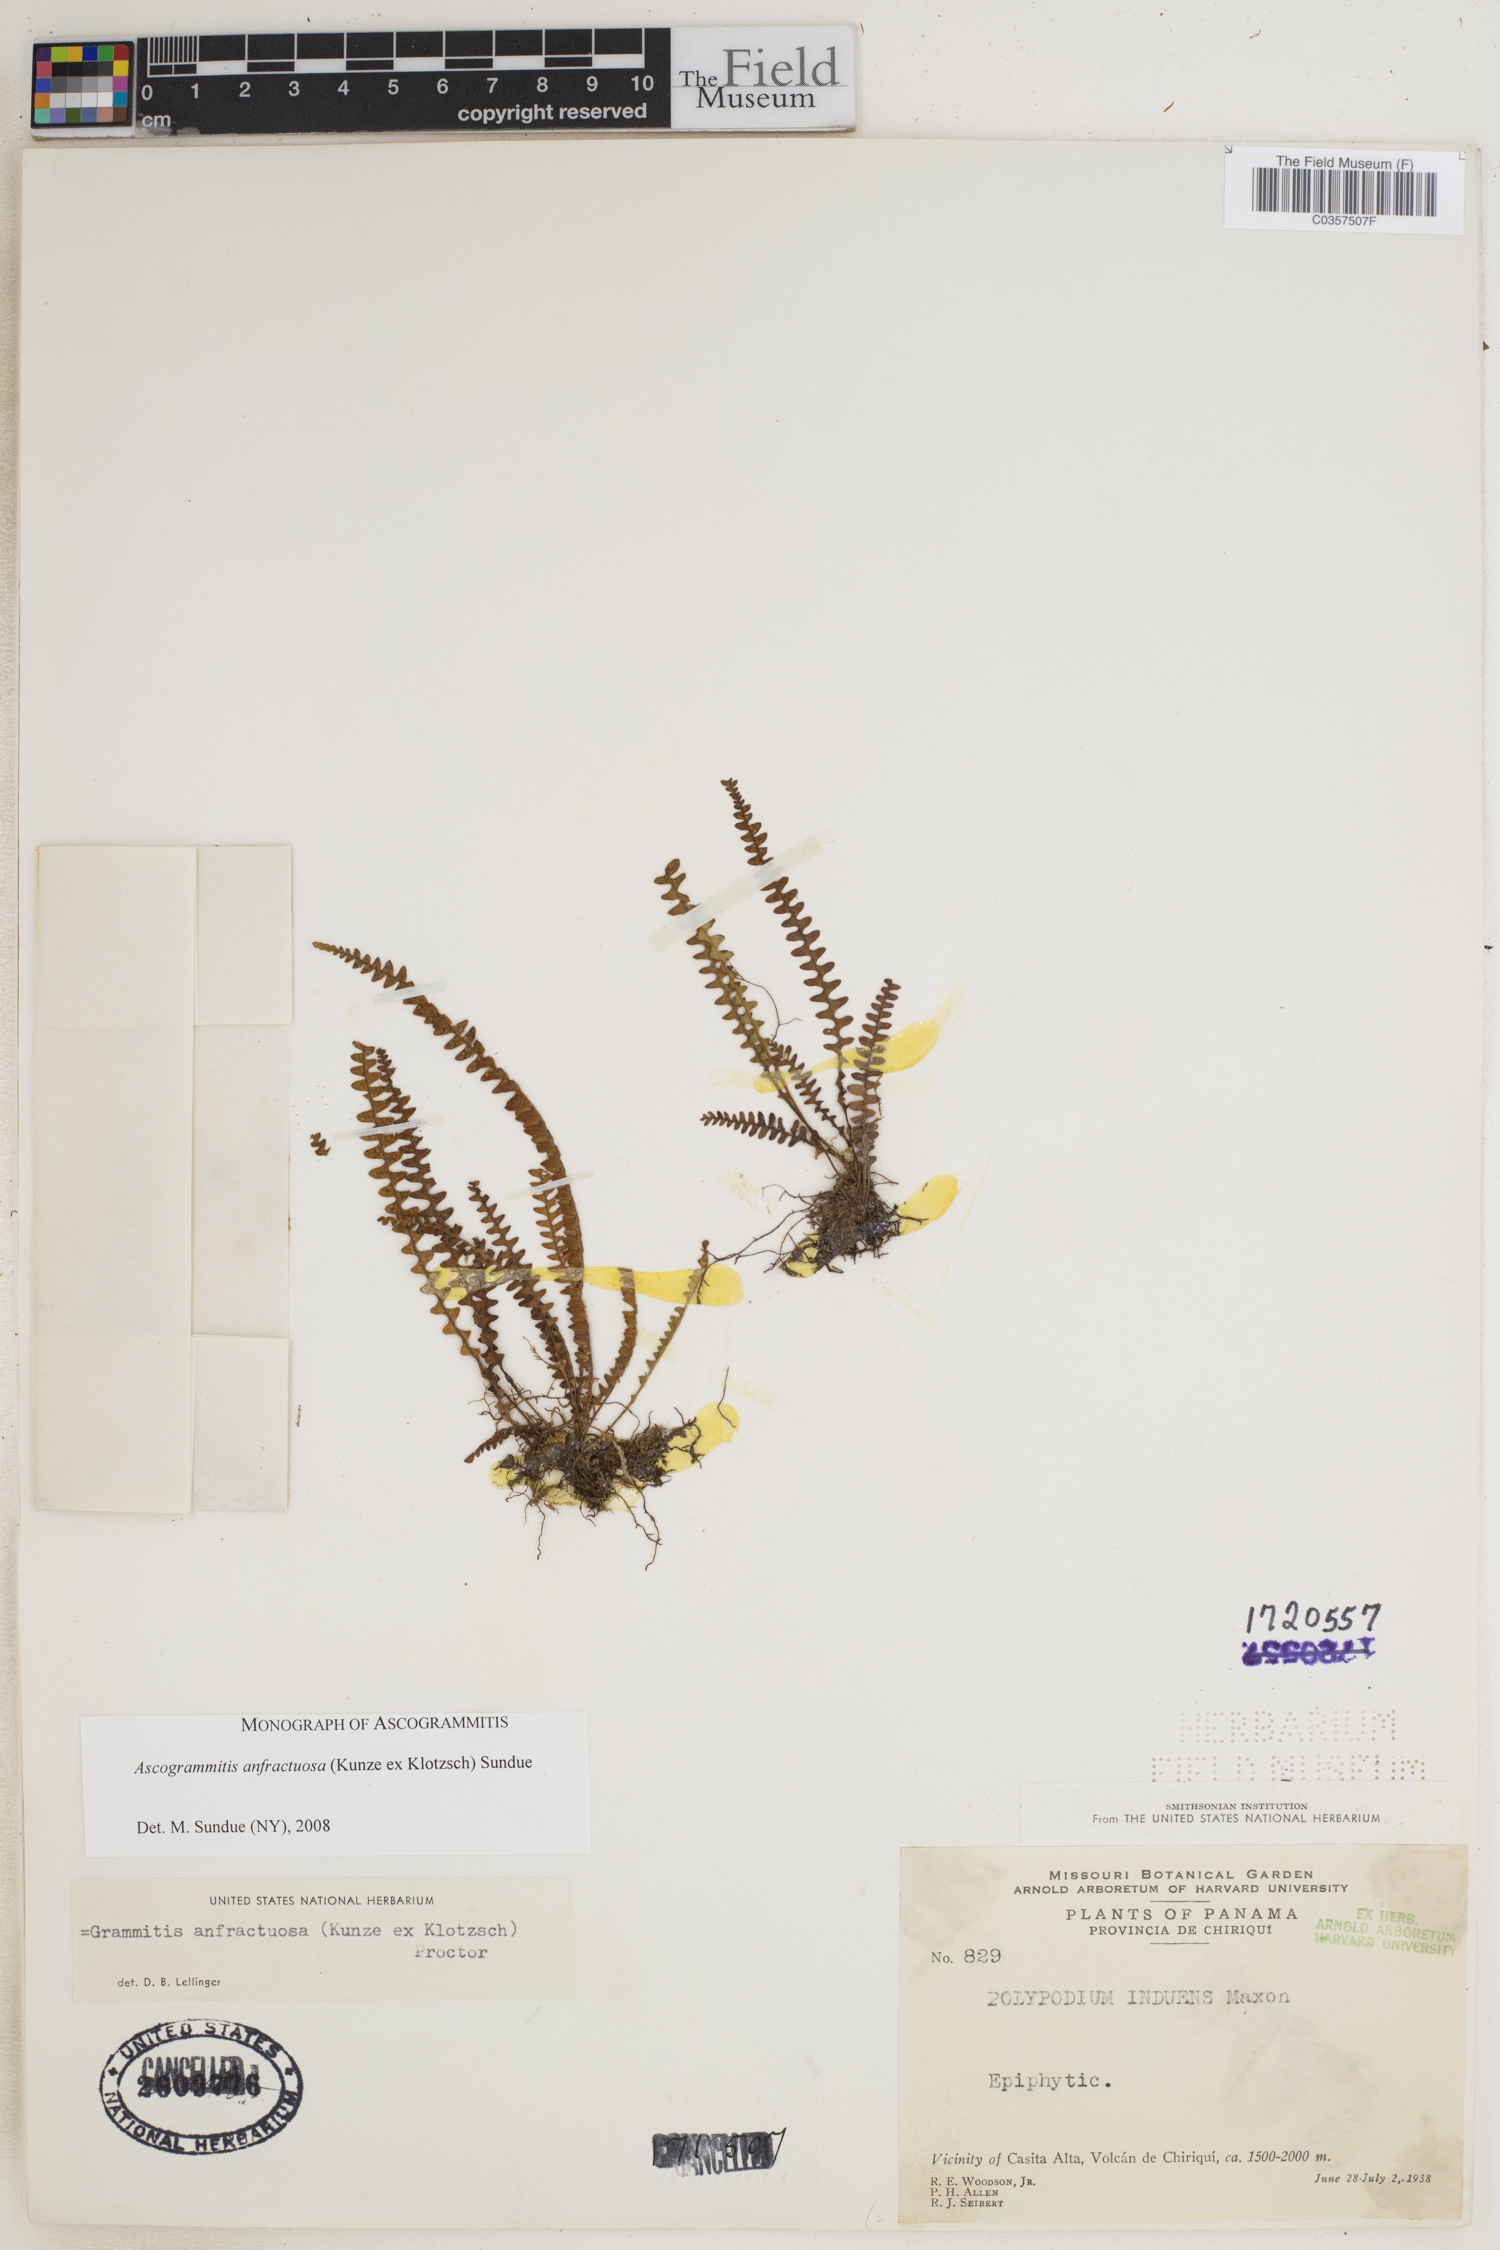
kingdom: Plantae
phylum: Tracheophyta
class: Polypodiopsida
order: Polypodiales
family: Polypodiaceae
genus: Ascogrammitis
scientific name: Ascogrammitis anfractuosa
